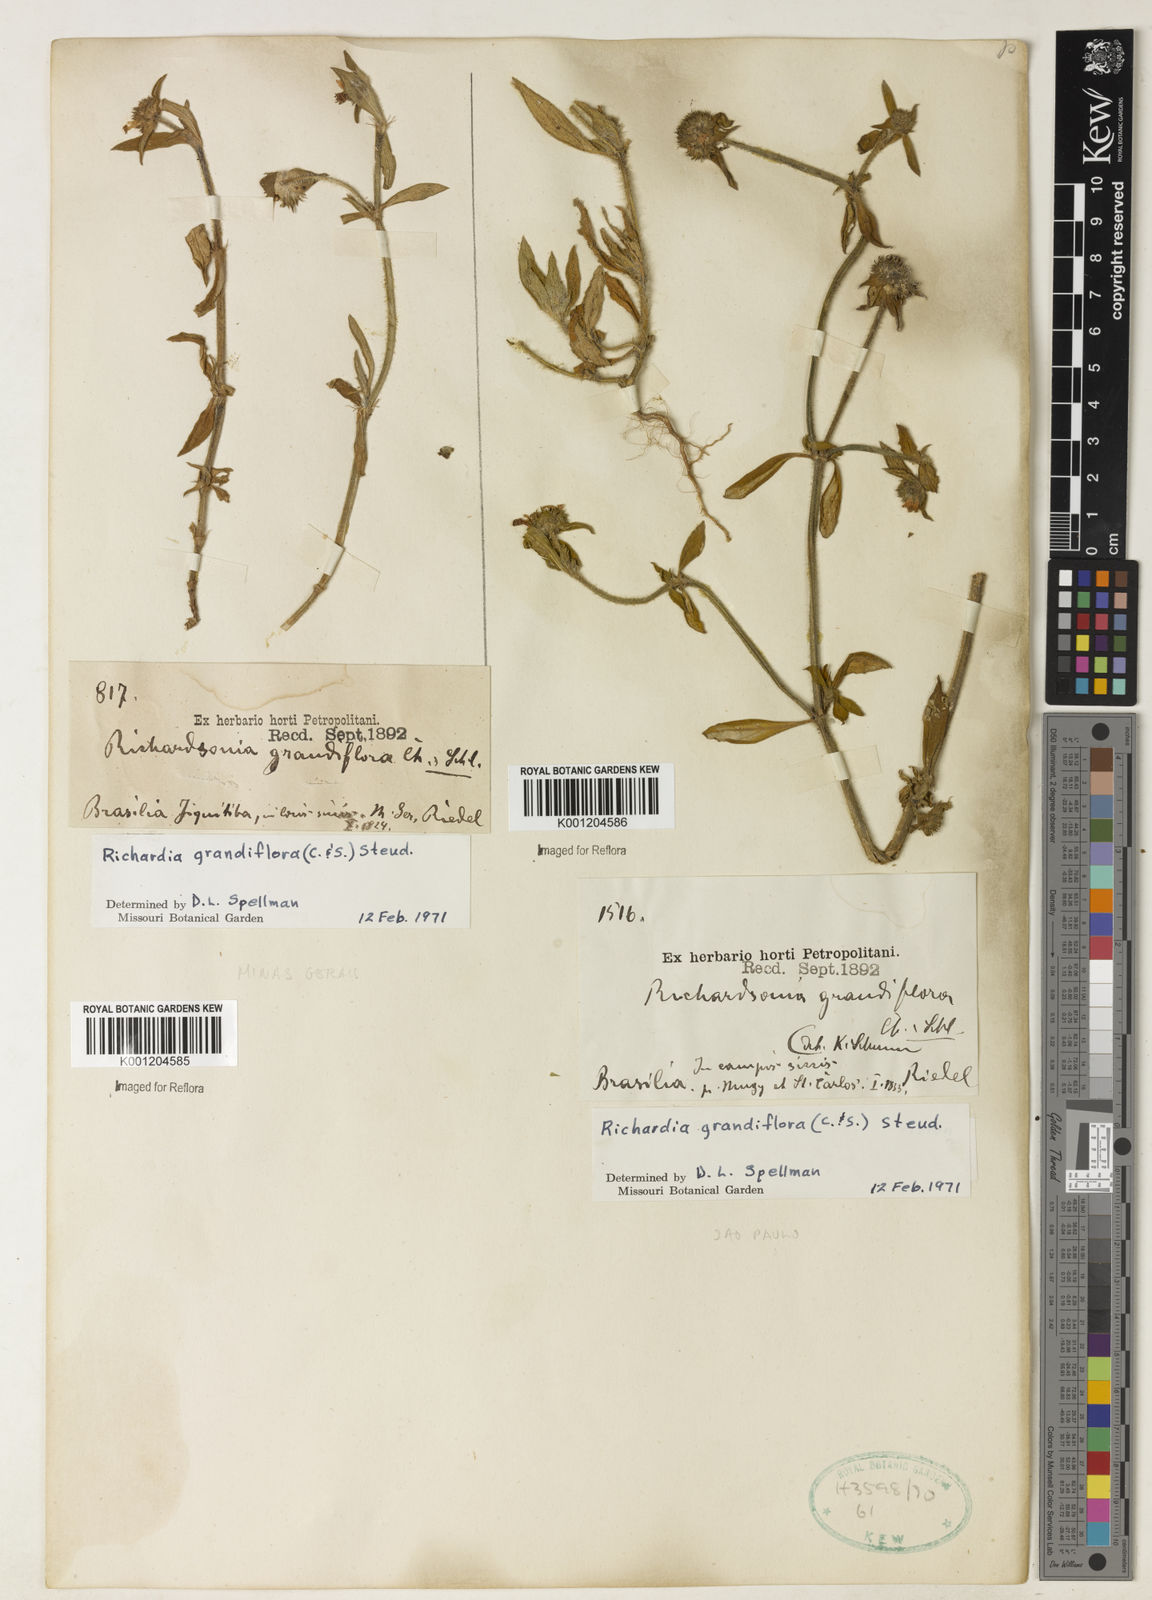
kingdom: Plantae
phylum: Tracheophyta
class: Magnoliopsida
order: Gentianales
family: Rubiaceae
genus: Richardia
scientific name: Richardia grandiflora
